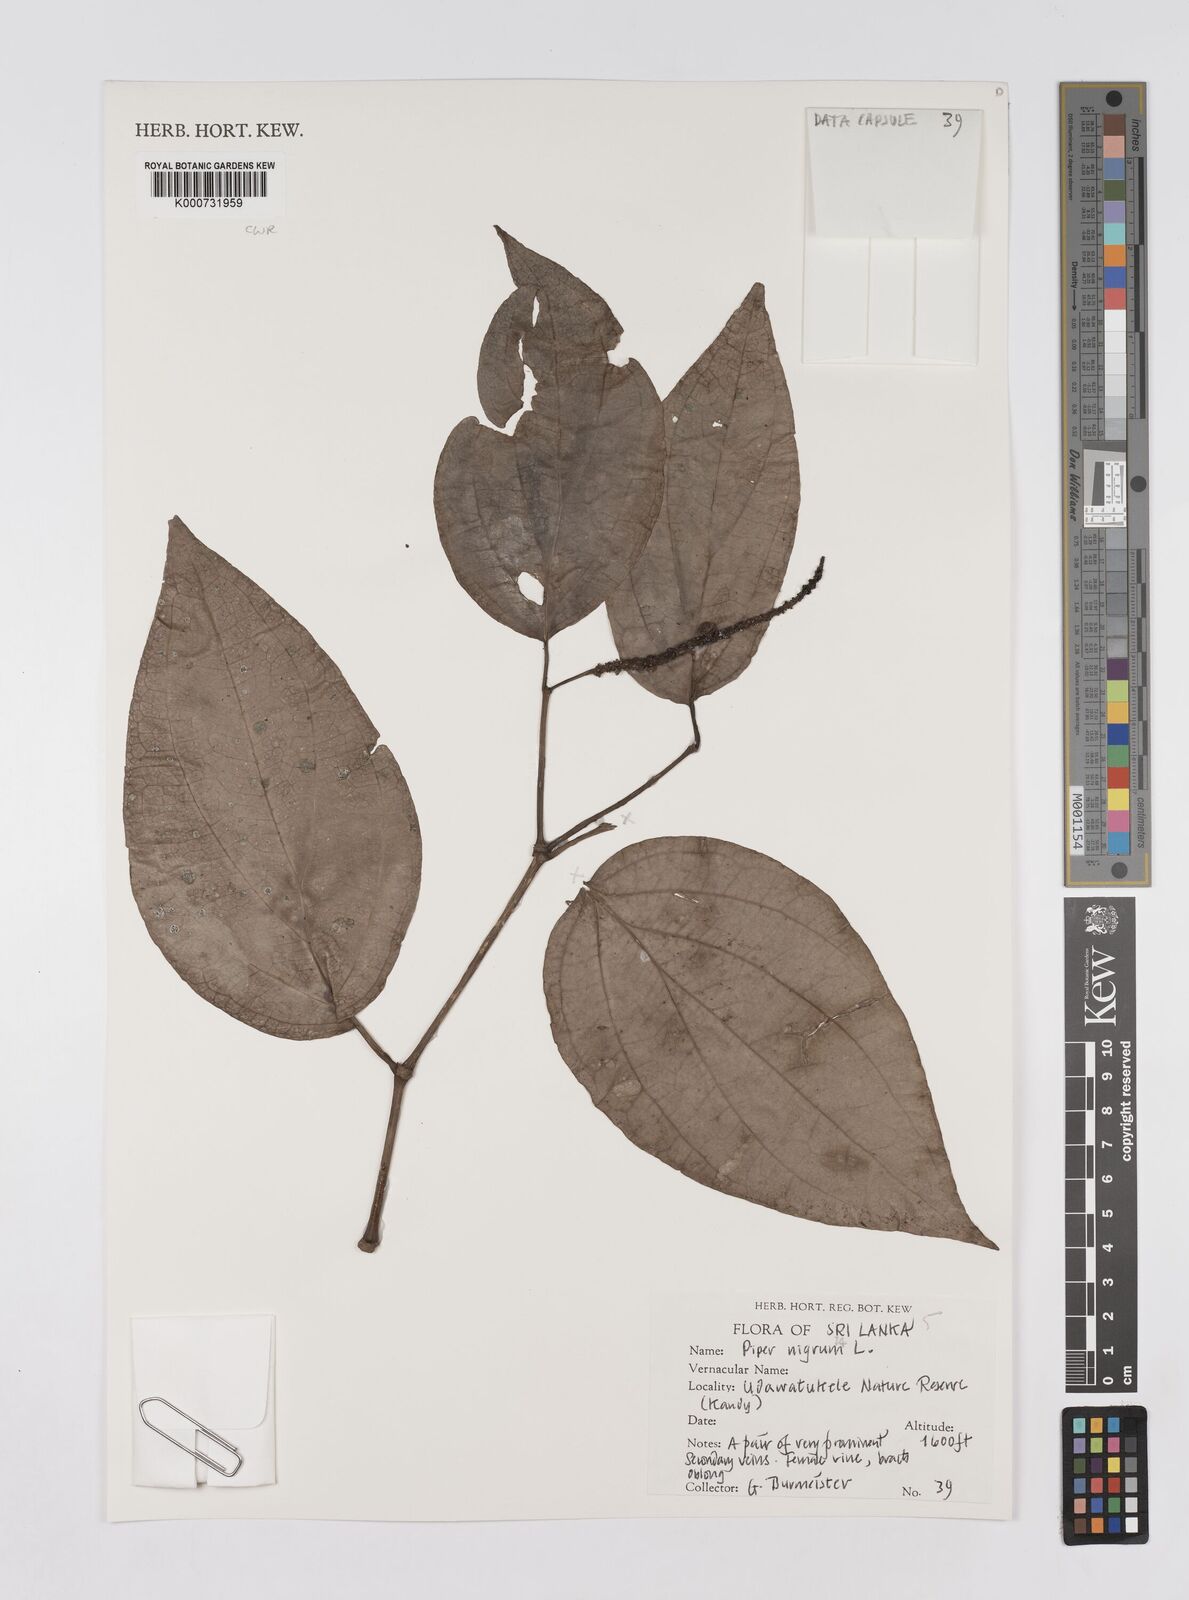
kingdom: Plantae
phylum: Tracheophyta
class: Magnoliopsida
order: Piperales
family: Piperaceae
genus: Piper
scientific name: Piper nigrum
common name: Black pepper
